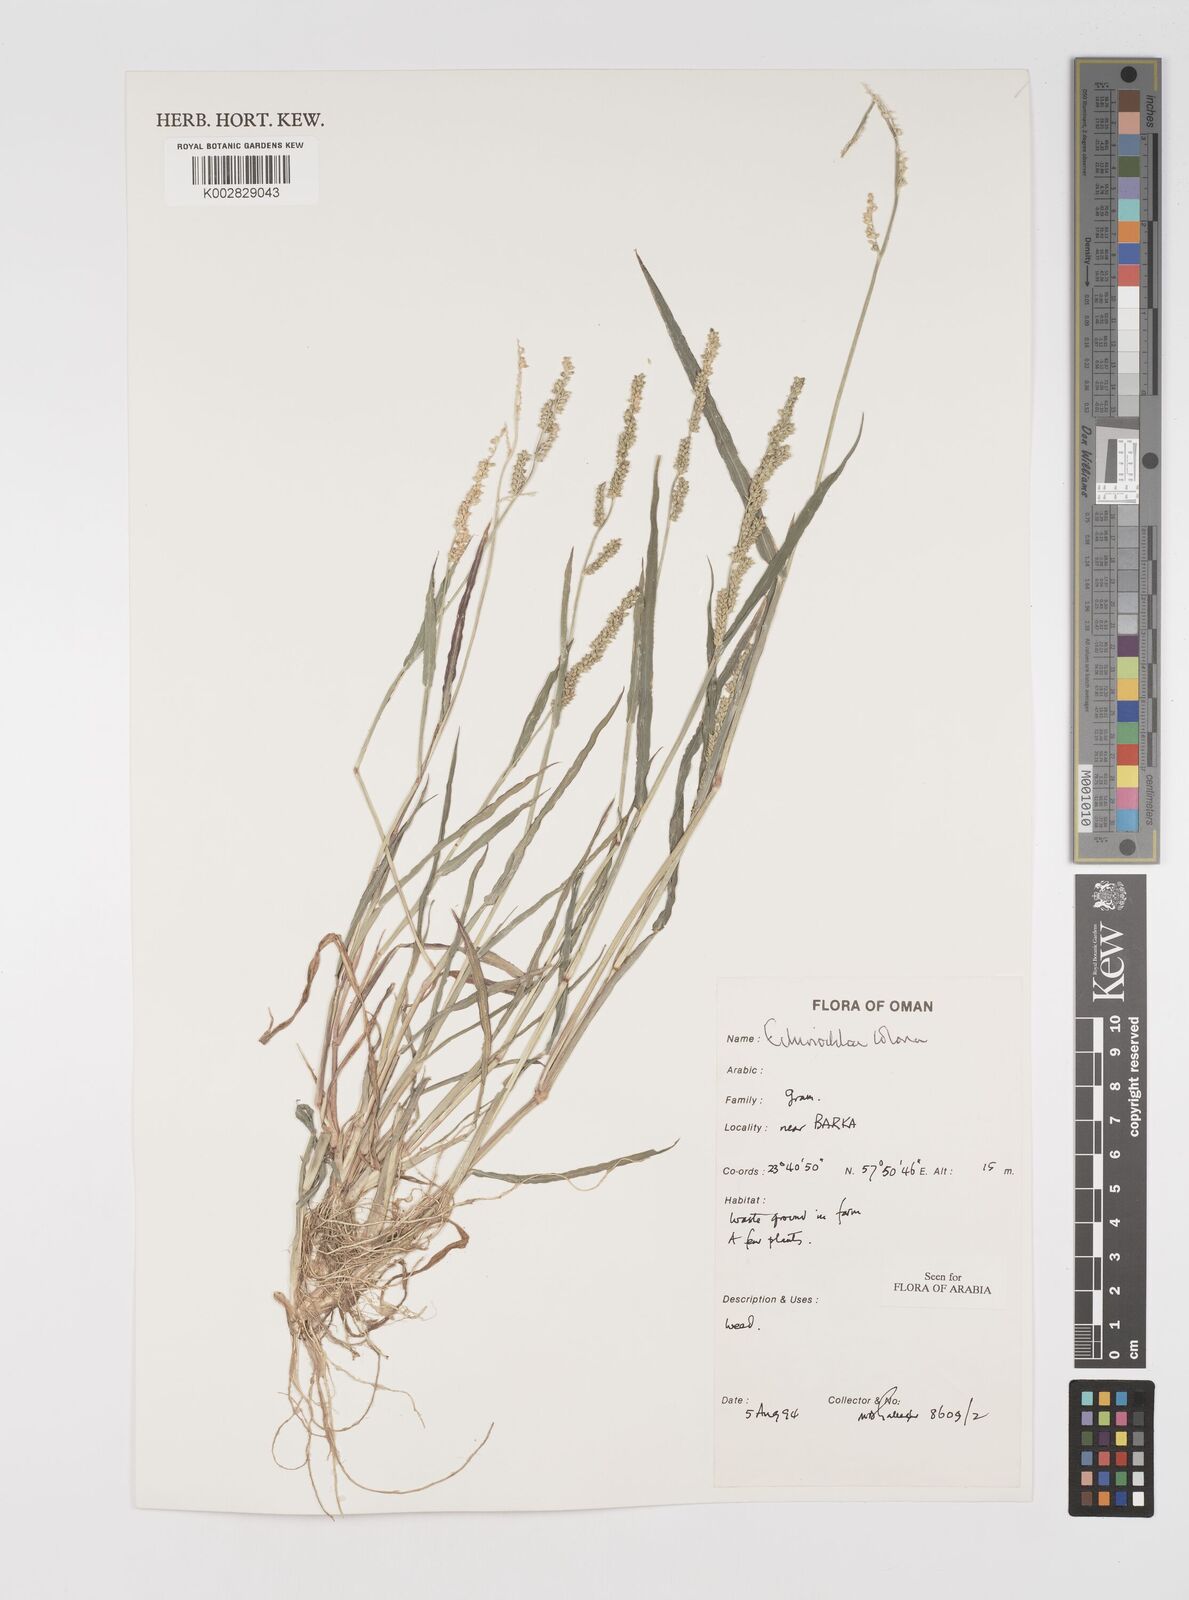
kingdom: Plantae
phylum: Tracheophyta
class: Liliopsida
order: Poales
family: Poaceae
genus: Echinochloa
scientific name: Echinochloa colonum
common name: Jungle rice
